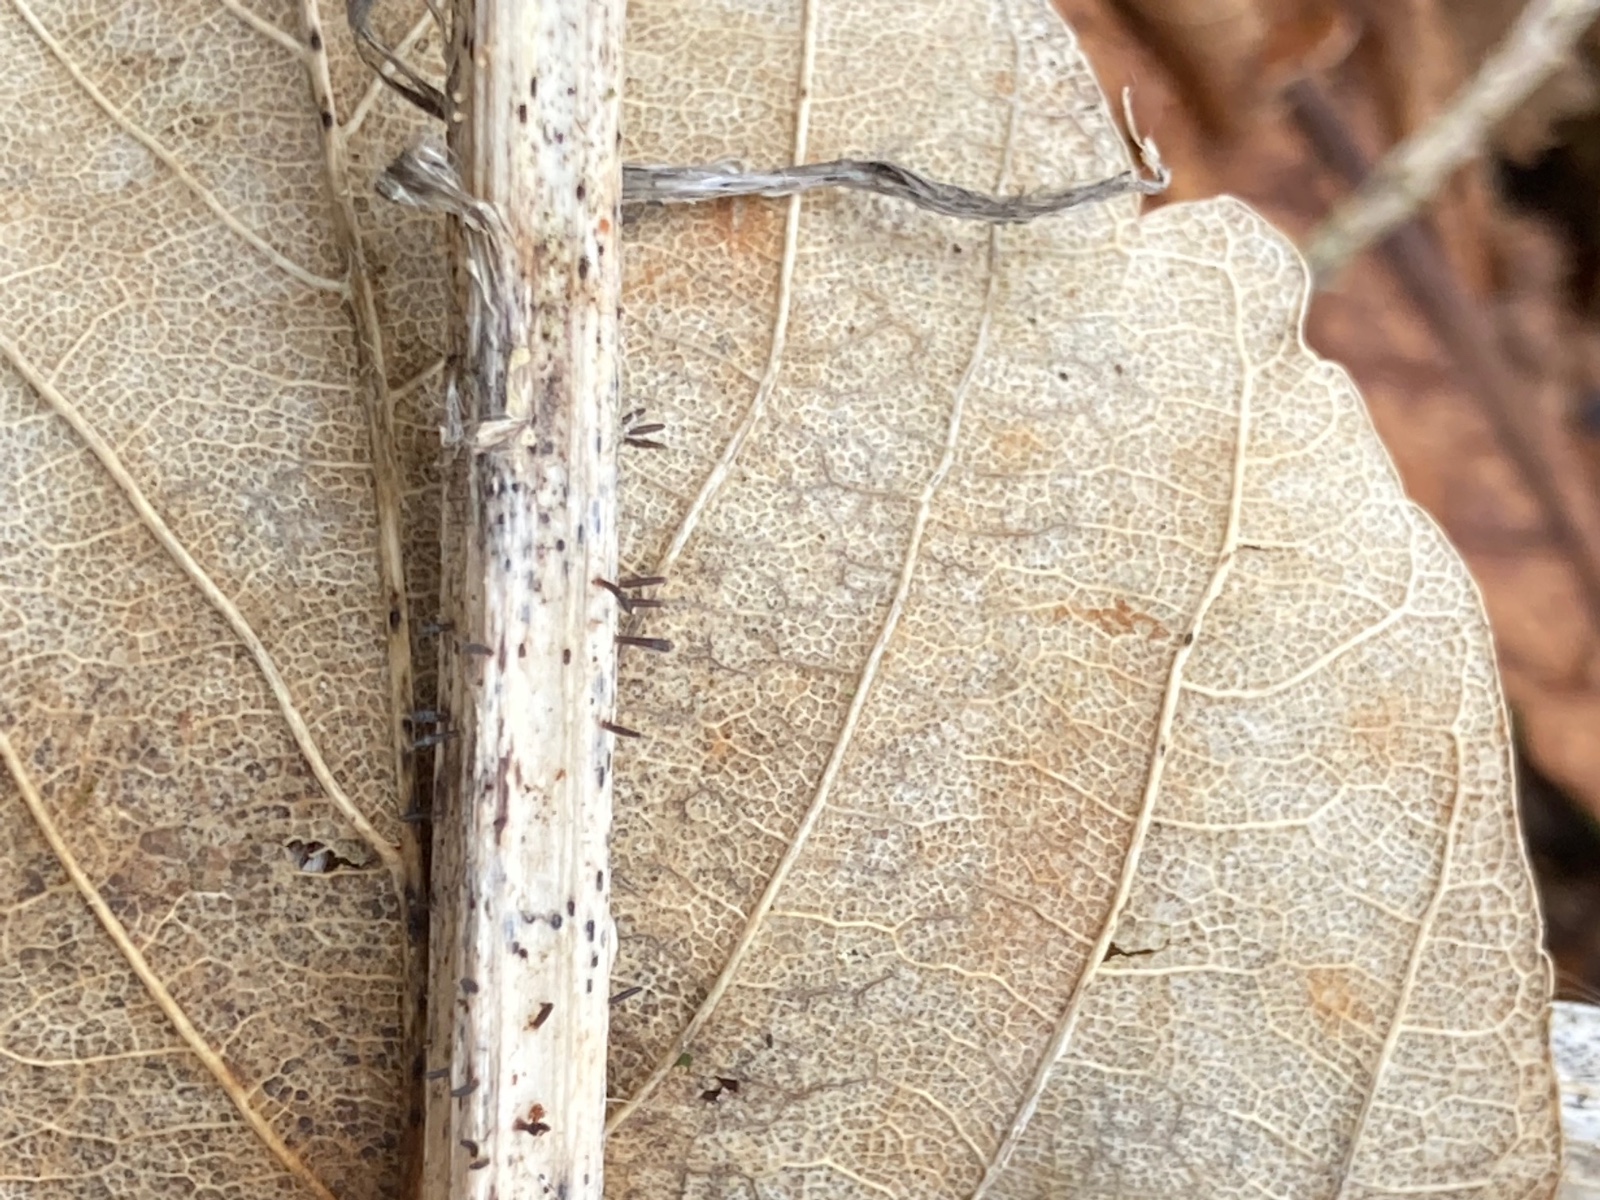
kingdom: Fungi
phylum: Ascomycota
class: Dothideomycetes
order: Acrospermales
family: Acrospermaceae
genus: Acrospermum
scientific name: Acrospermum compressum
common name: nælde-stængeltunge
